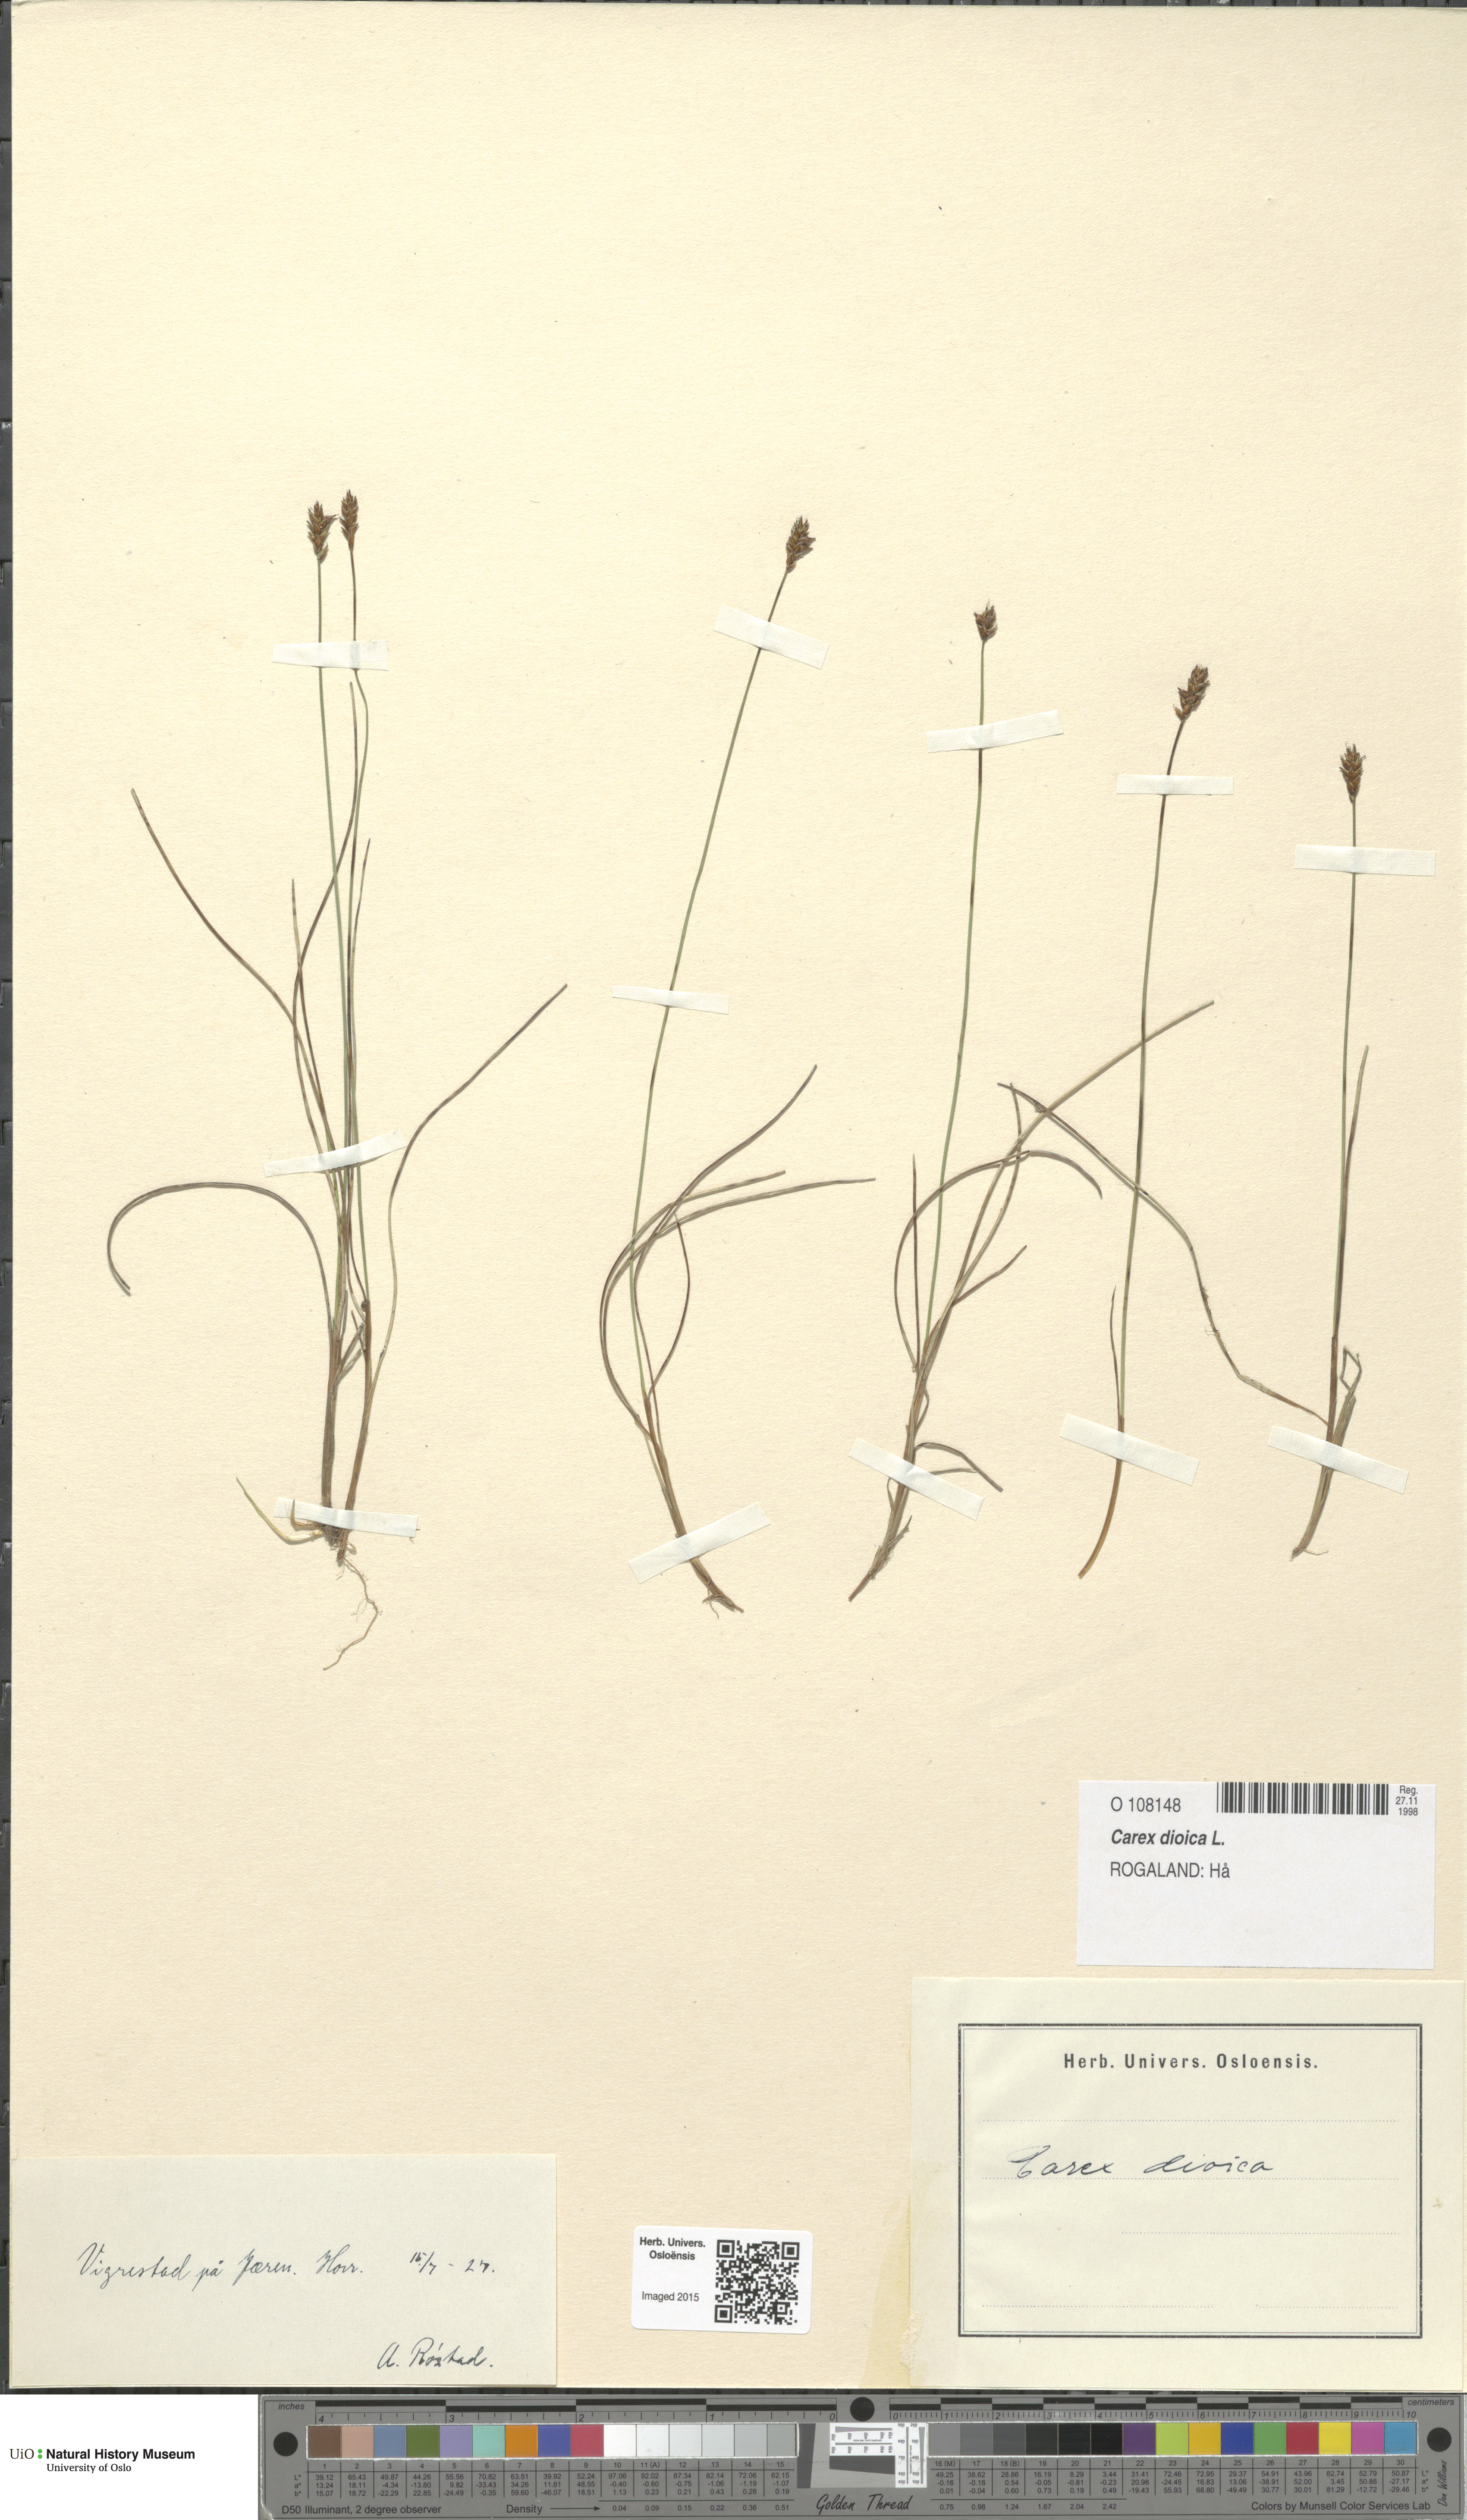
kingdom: Plantae
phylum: Tracheophyta
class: Liliopsida
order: Poales
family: Cyperaceae
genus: Carex
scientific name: Carex dioica
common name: Dioecious sedge
